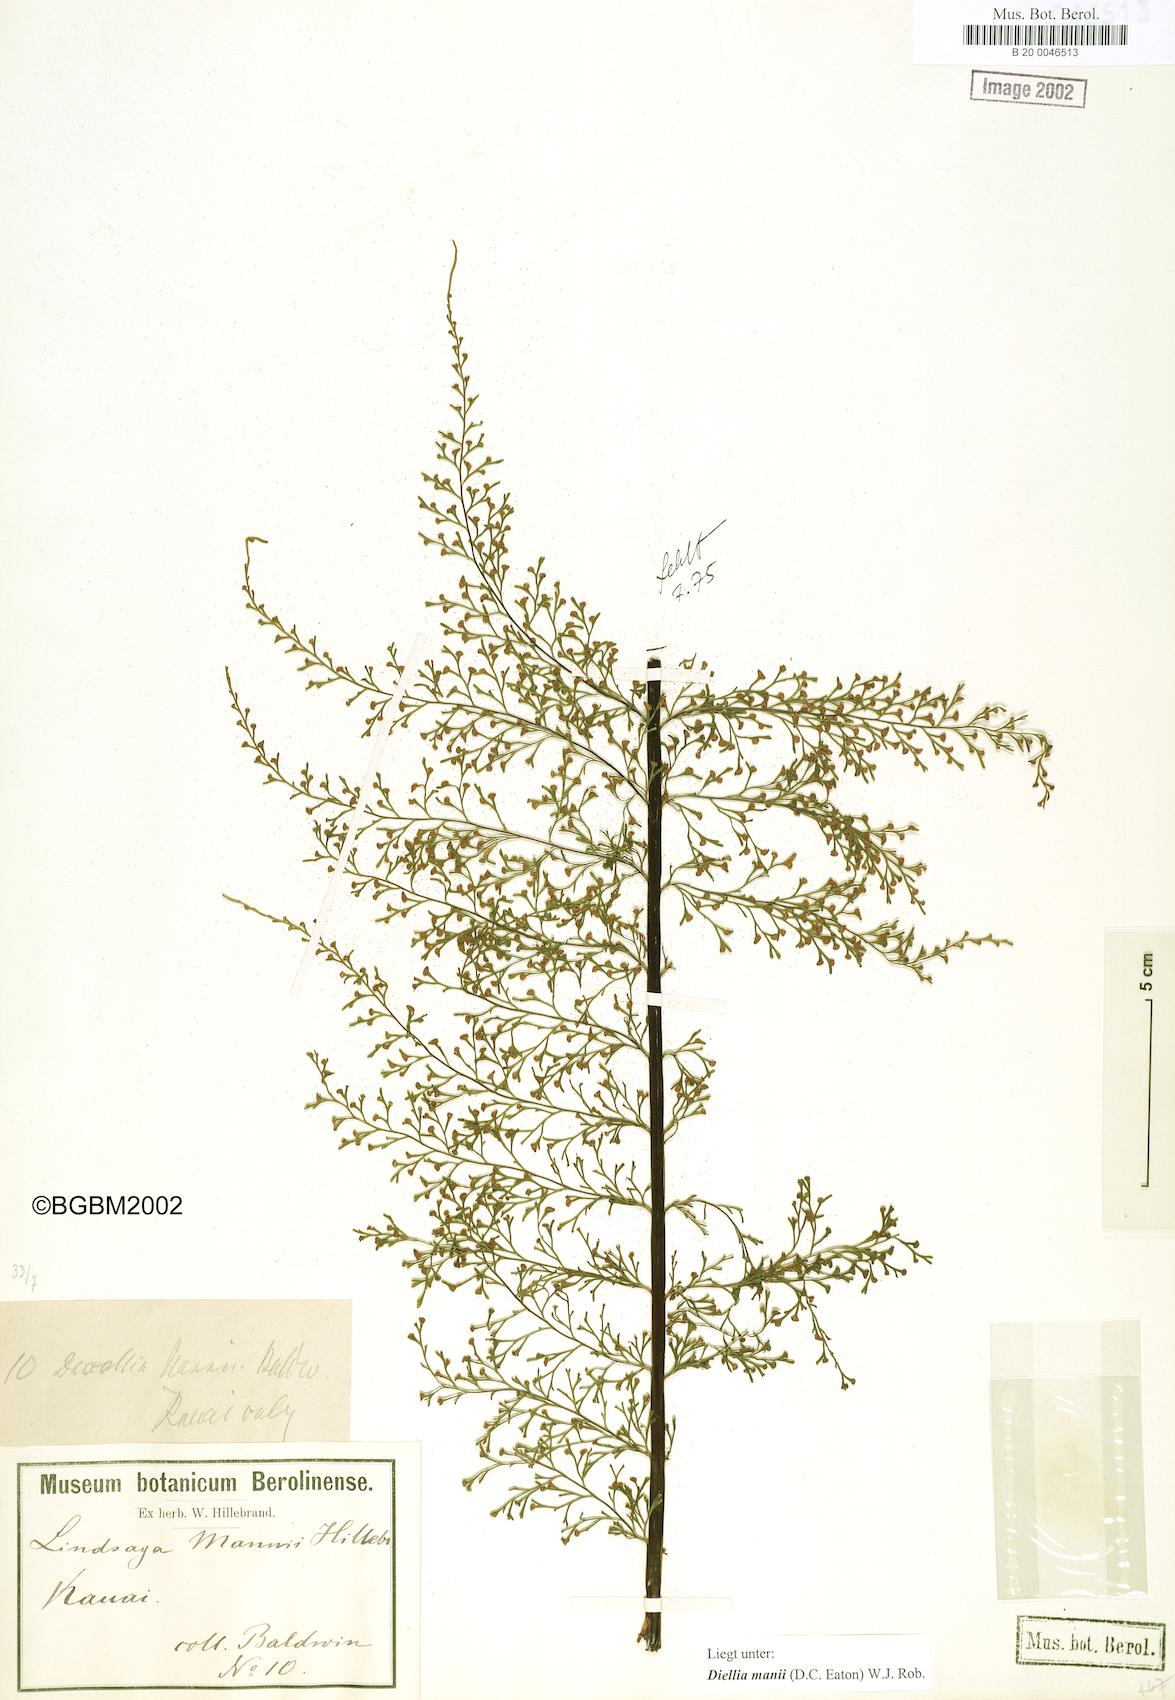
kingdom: Plantae
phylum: Tracheophyta
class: Polypodiopsida
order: Polypodiales
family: Aspleniaceae
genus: Asplenium
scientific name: Asplenium dielmannii
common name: Mann's island spleenwort
